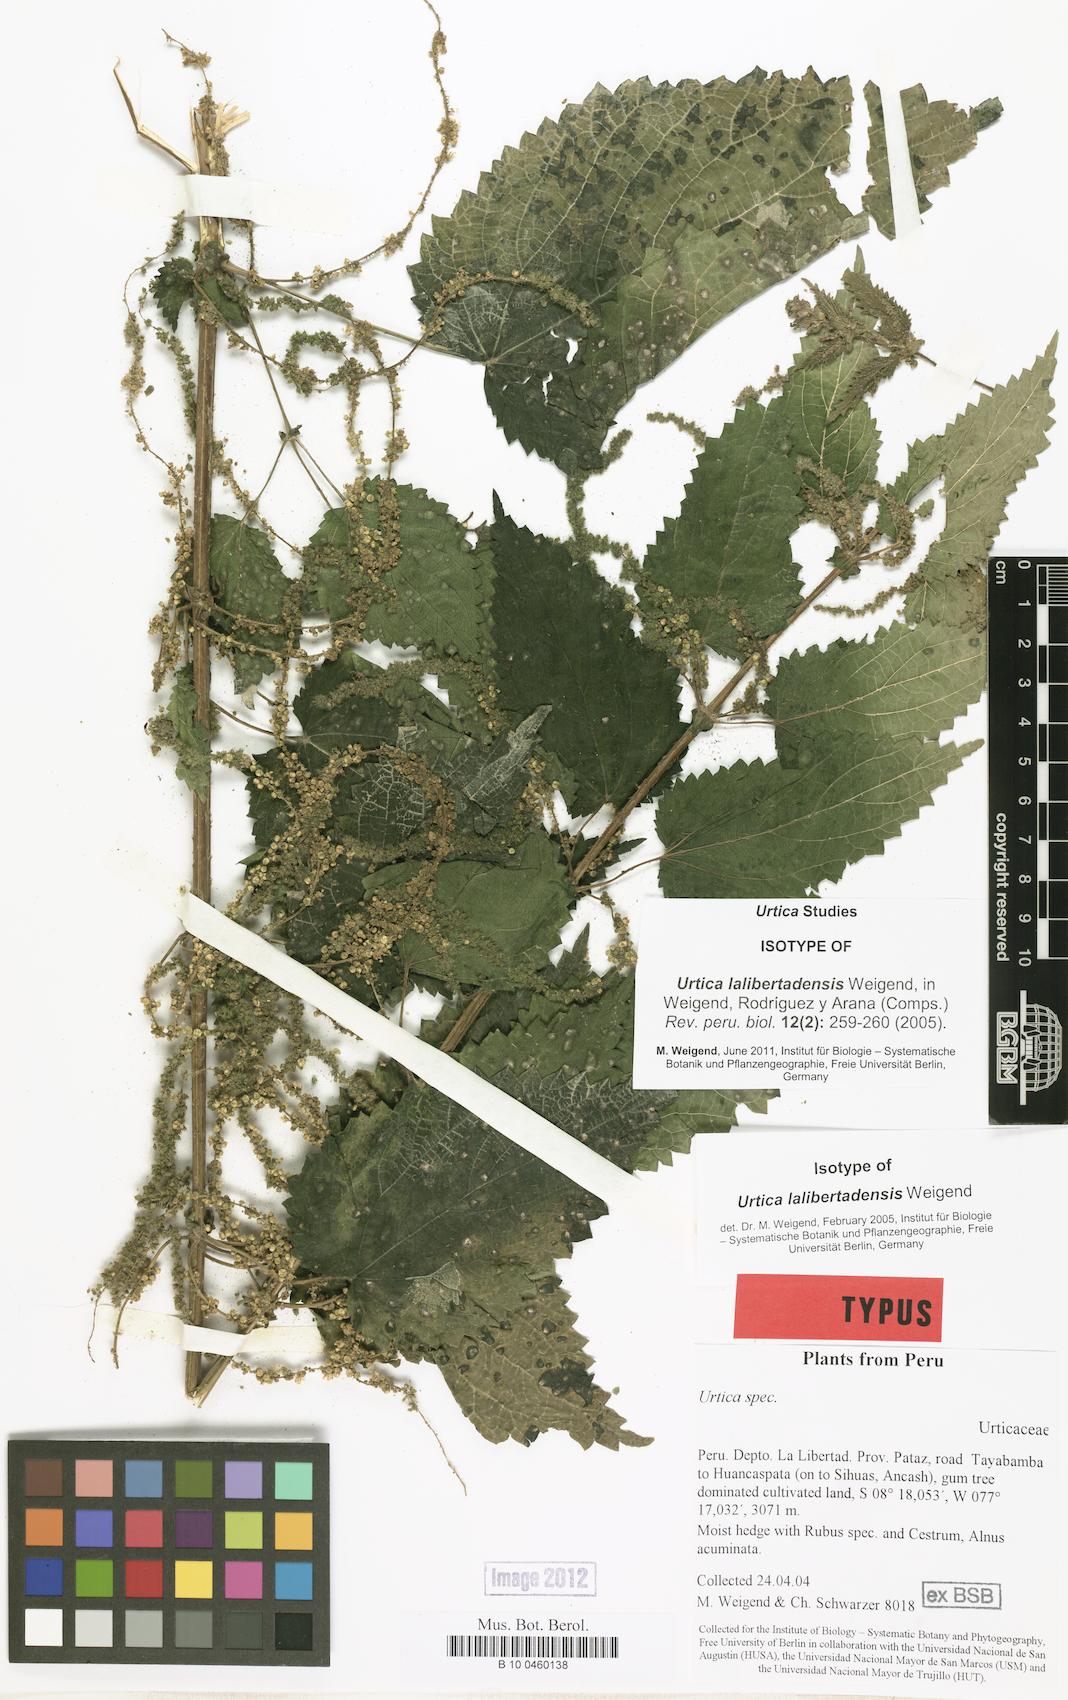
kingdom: Plantae
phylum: Tracheophyta
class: Magnoliopsida
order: Rosales
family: Urticaceae
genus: Urtica
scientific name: Urtica lalibertadensis
